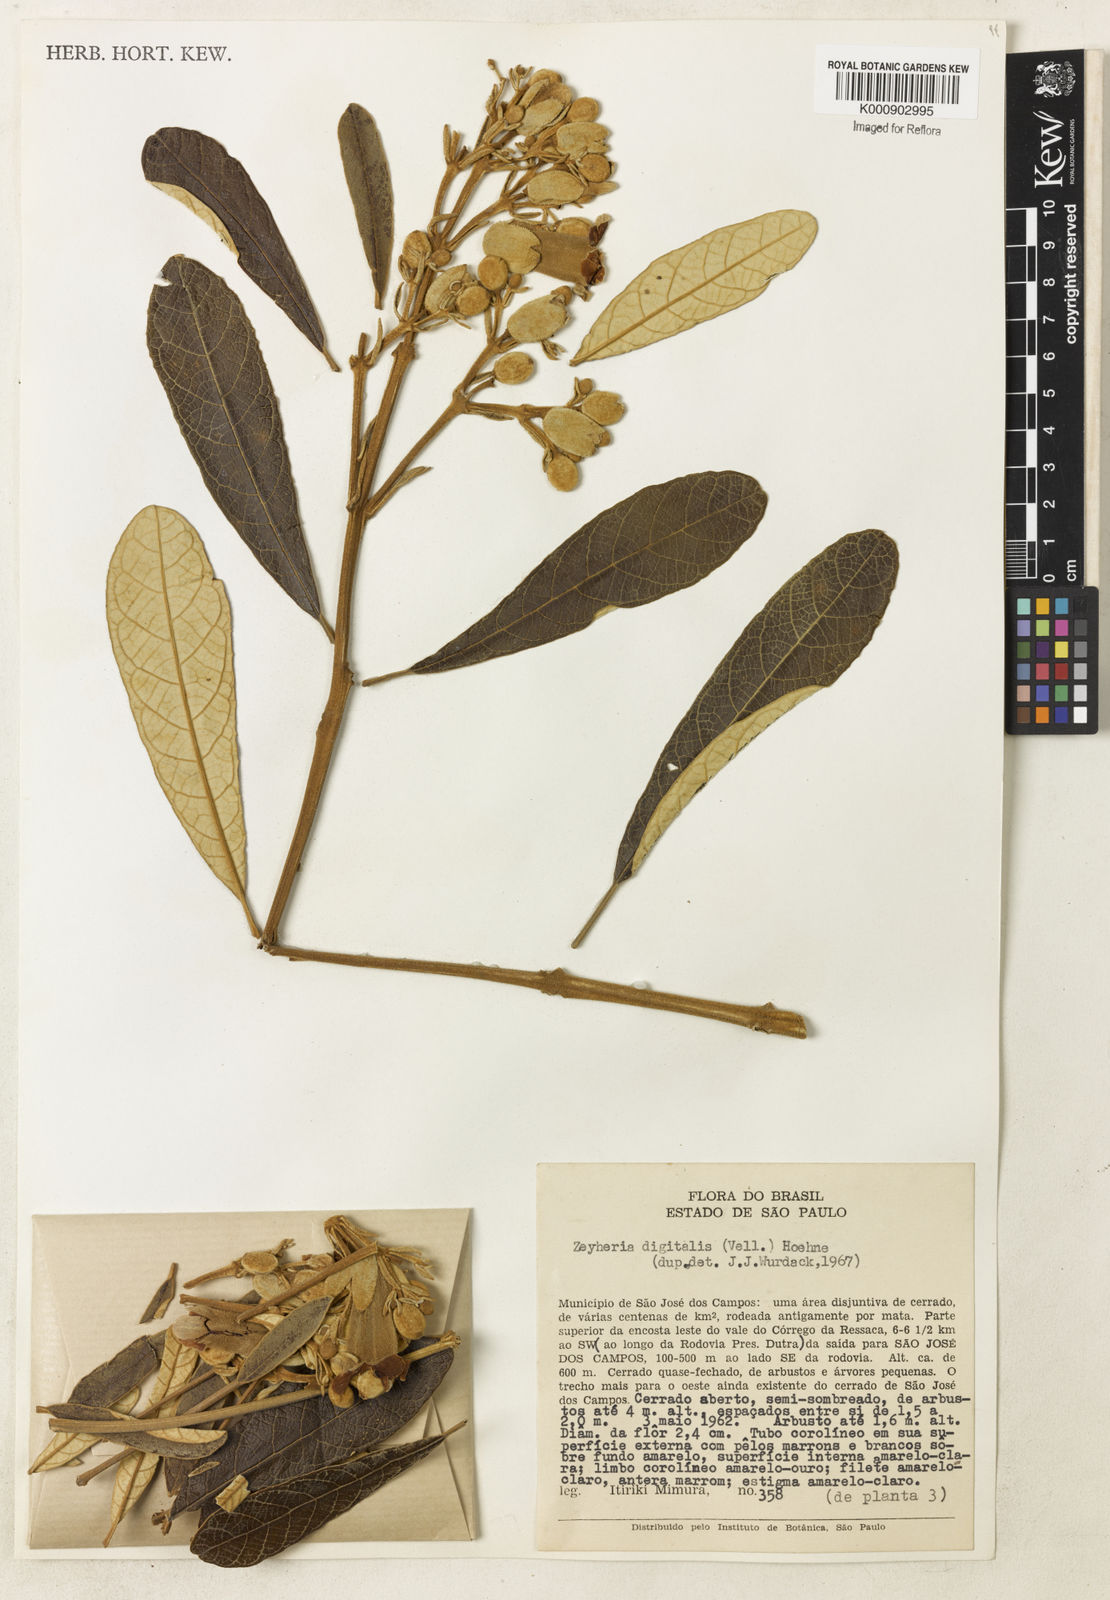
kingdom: Plantae
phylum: Tracheophyta
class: Magnoliopsida
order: Lamiales
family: Bignoniaceae
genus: Zeyheria
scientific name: Zeyheria
